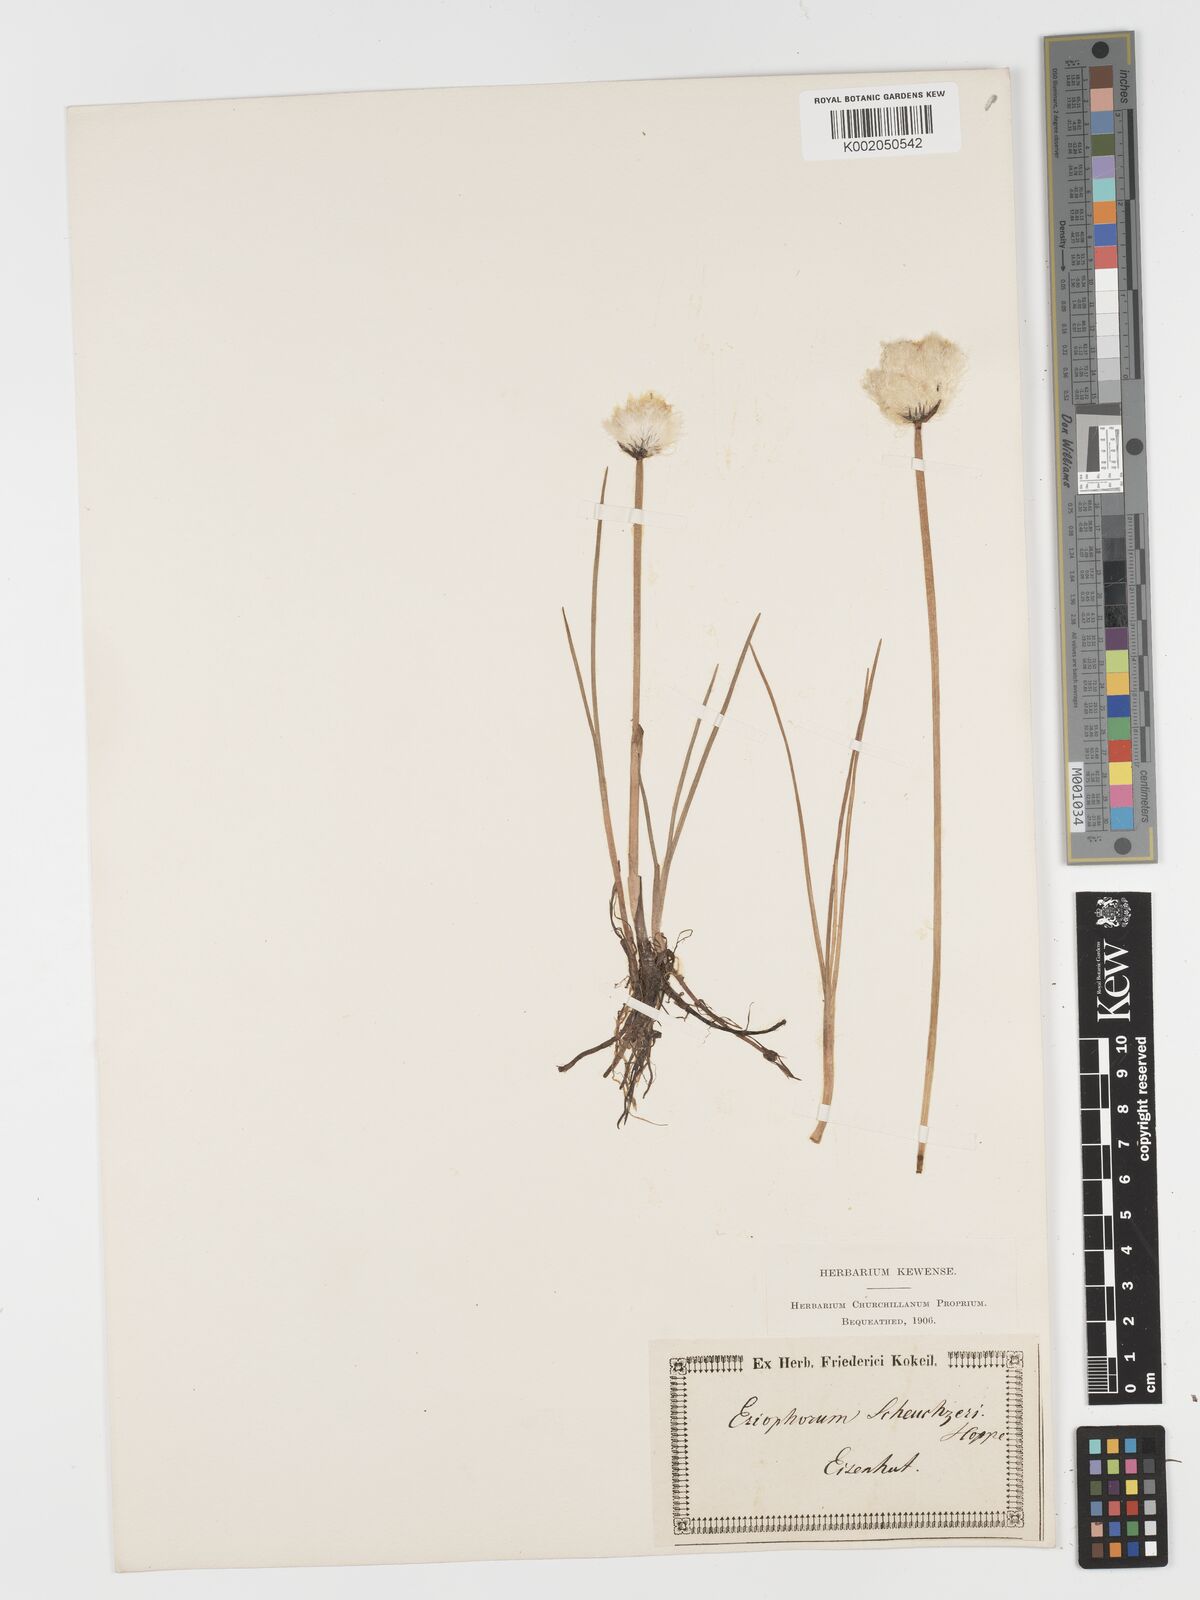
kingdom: Plantae
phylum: Tracheophyta
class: Liliopsida
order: Poales
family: Cyperaceae
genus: Eriophorum
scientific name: Eriophorum scheuchzeri
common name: Scheuchzer's cottongrass
